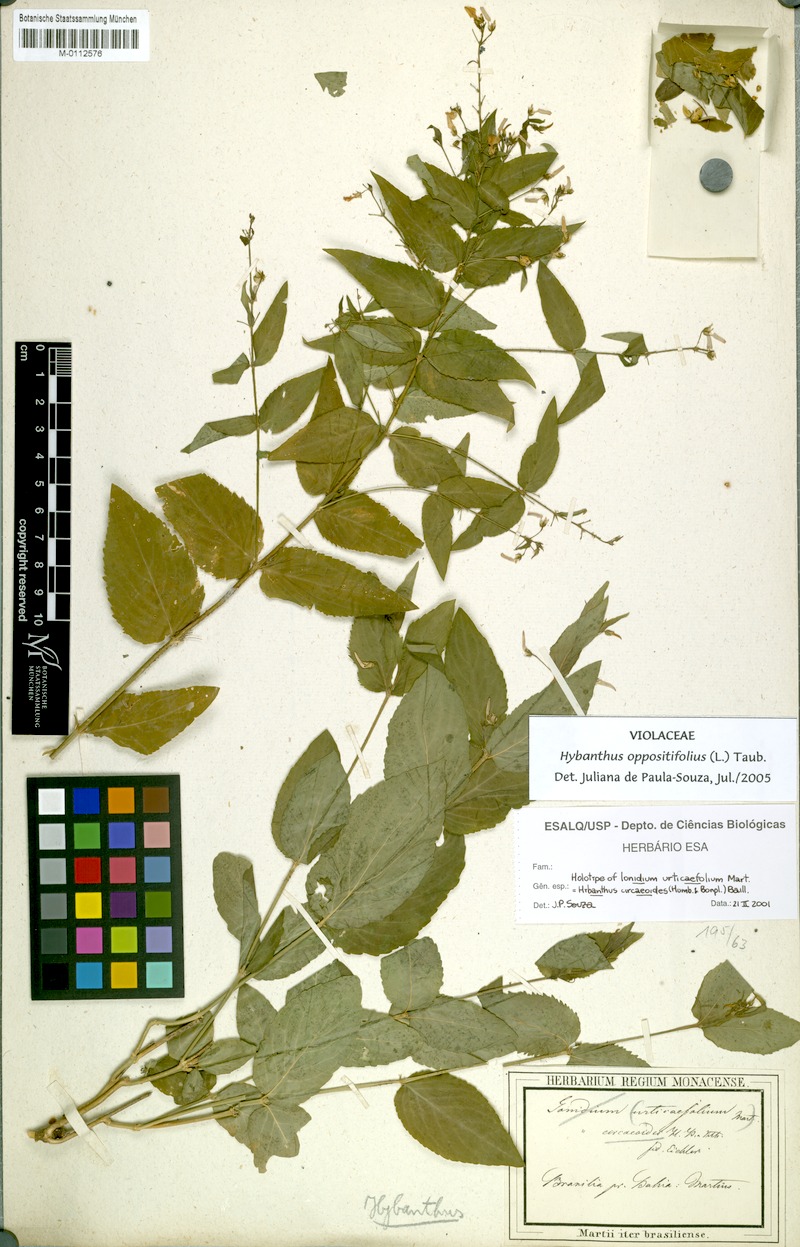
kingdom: Plantae
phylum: Tracheophyta
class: Magnoliopsida
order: Malpighiales
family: Violaceae
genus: Pombalia
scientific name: Pombalia oppositifolia
